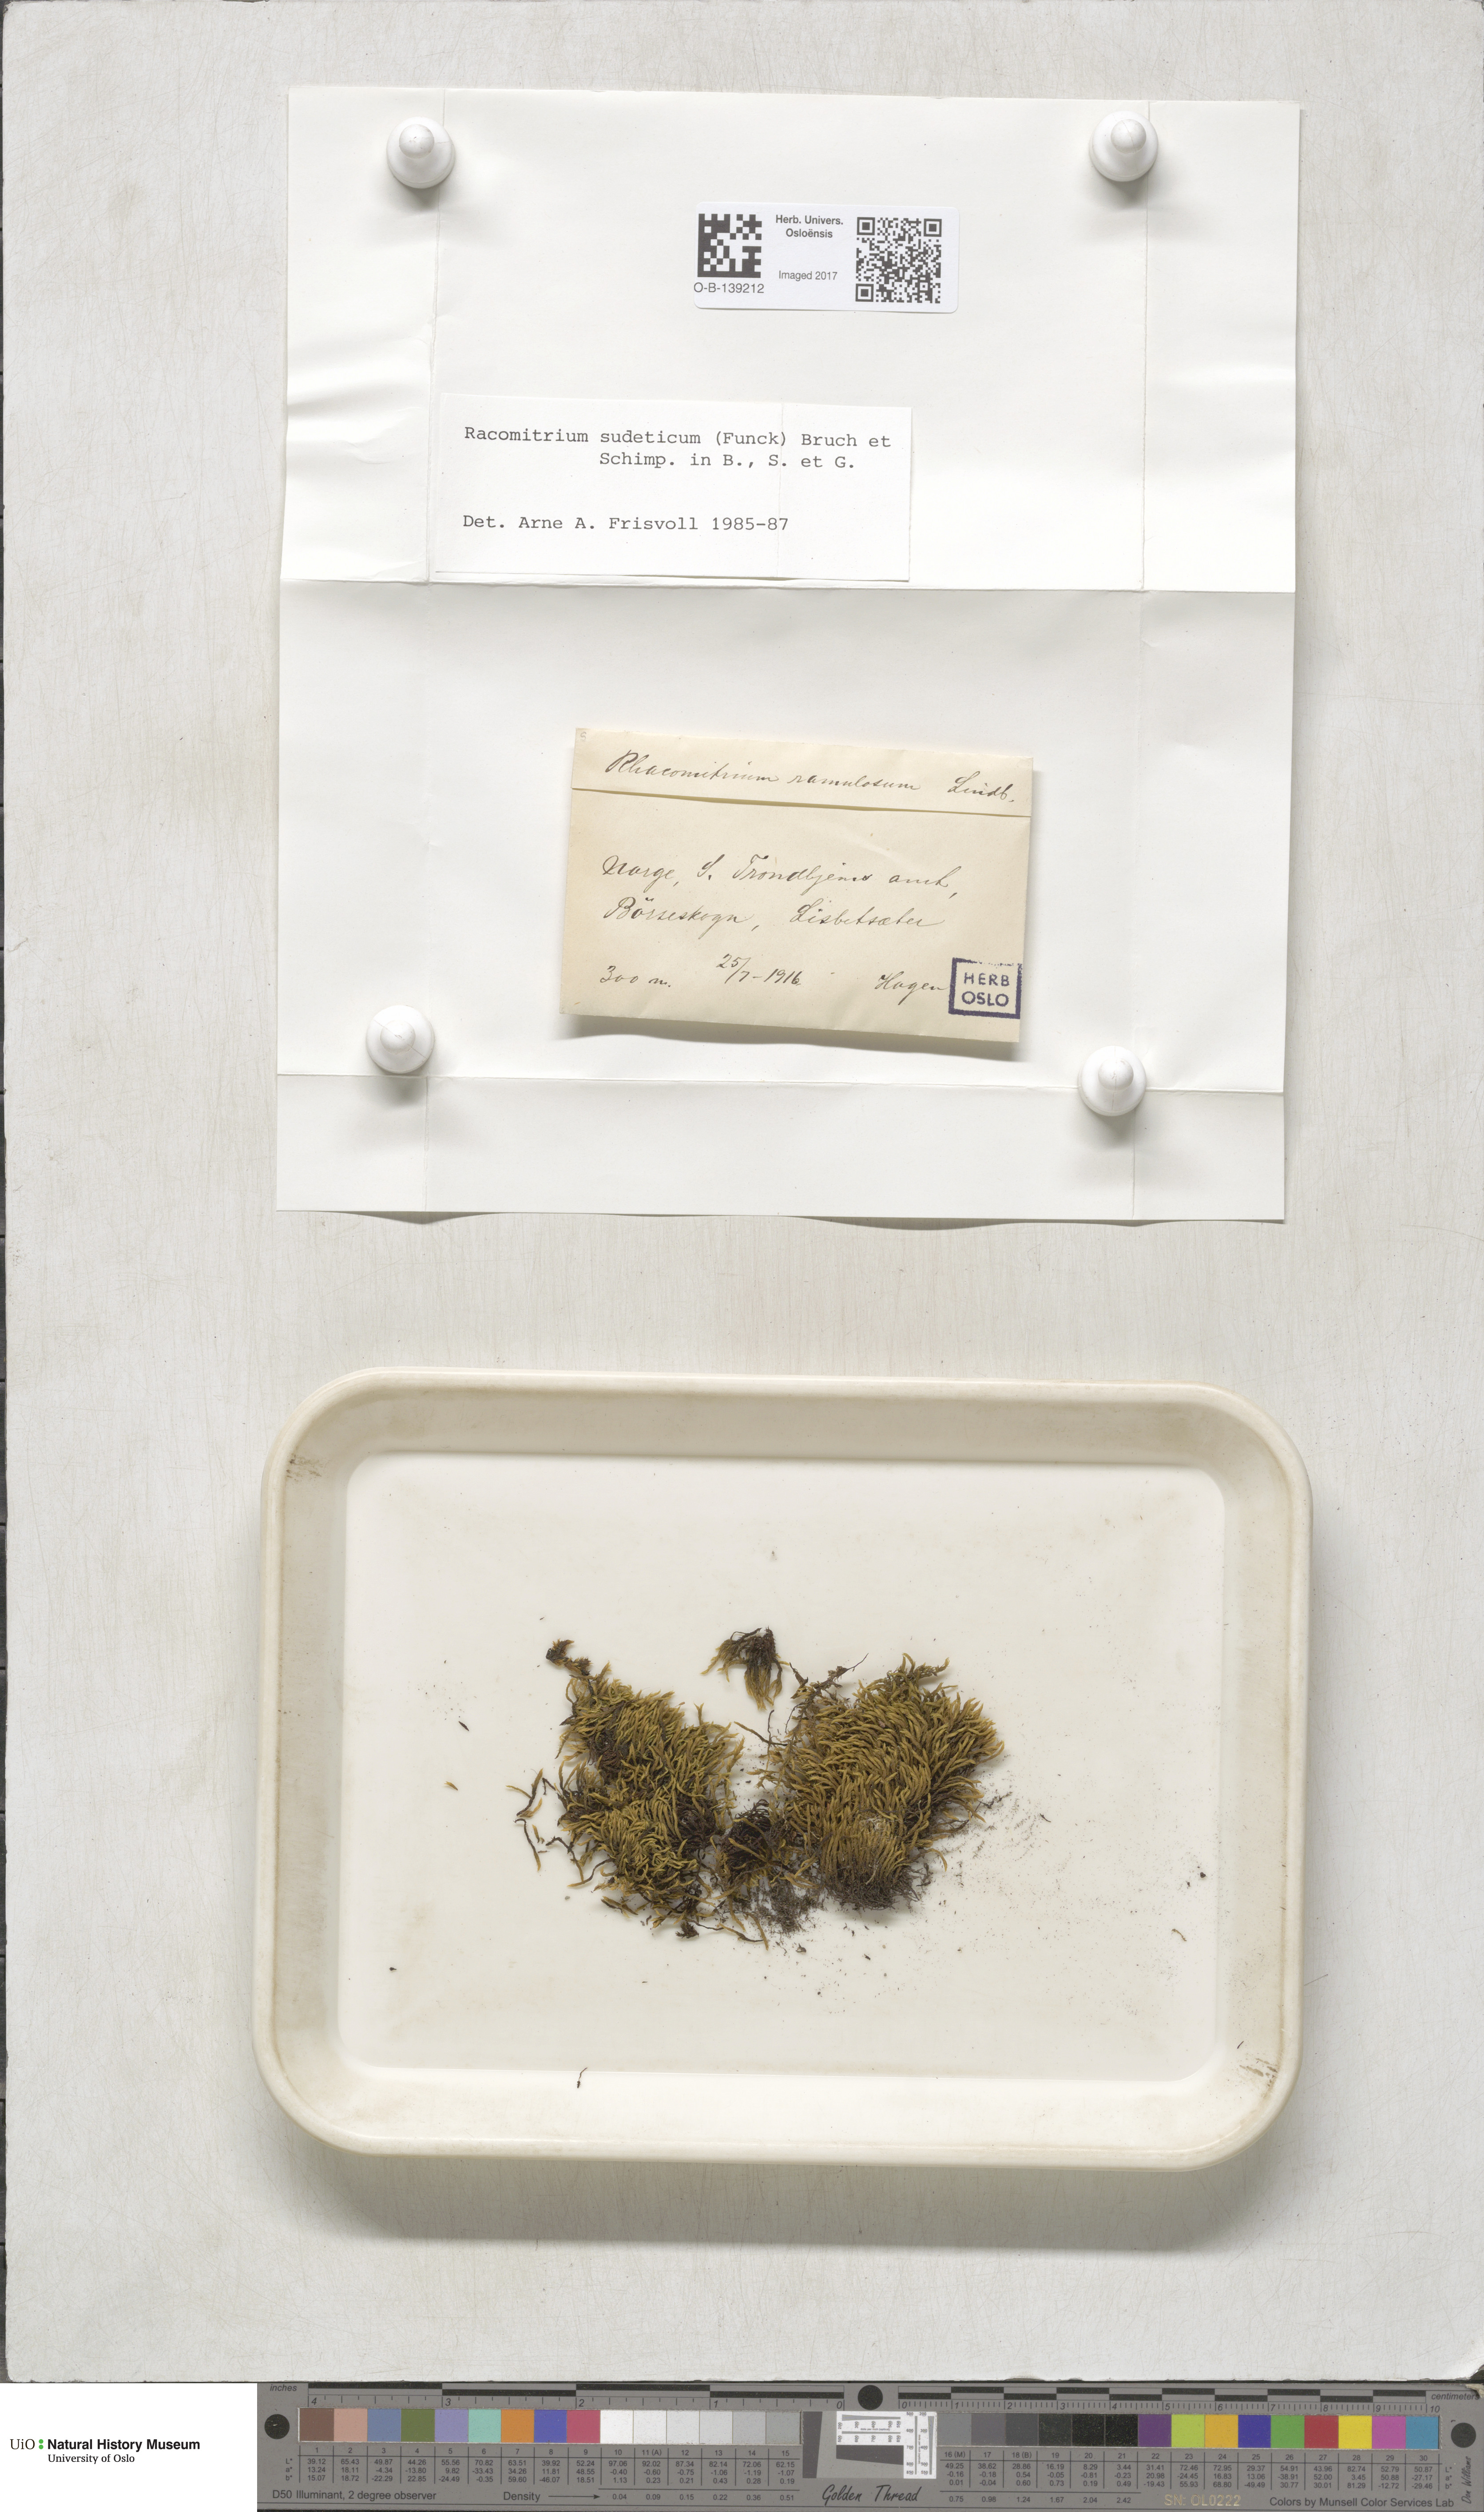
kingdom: Plantae
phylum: Bryophyta
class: Bryopsida
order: Grimmiales
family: Grimmiaceae
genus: Bucklandiella
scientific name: Bucklandiella sudetica
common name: Slender fringe-moss
